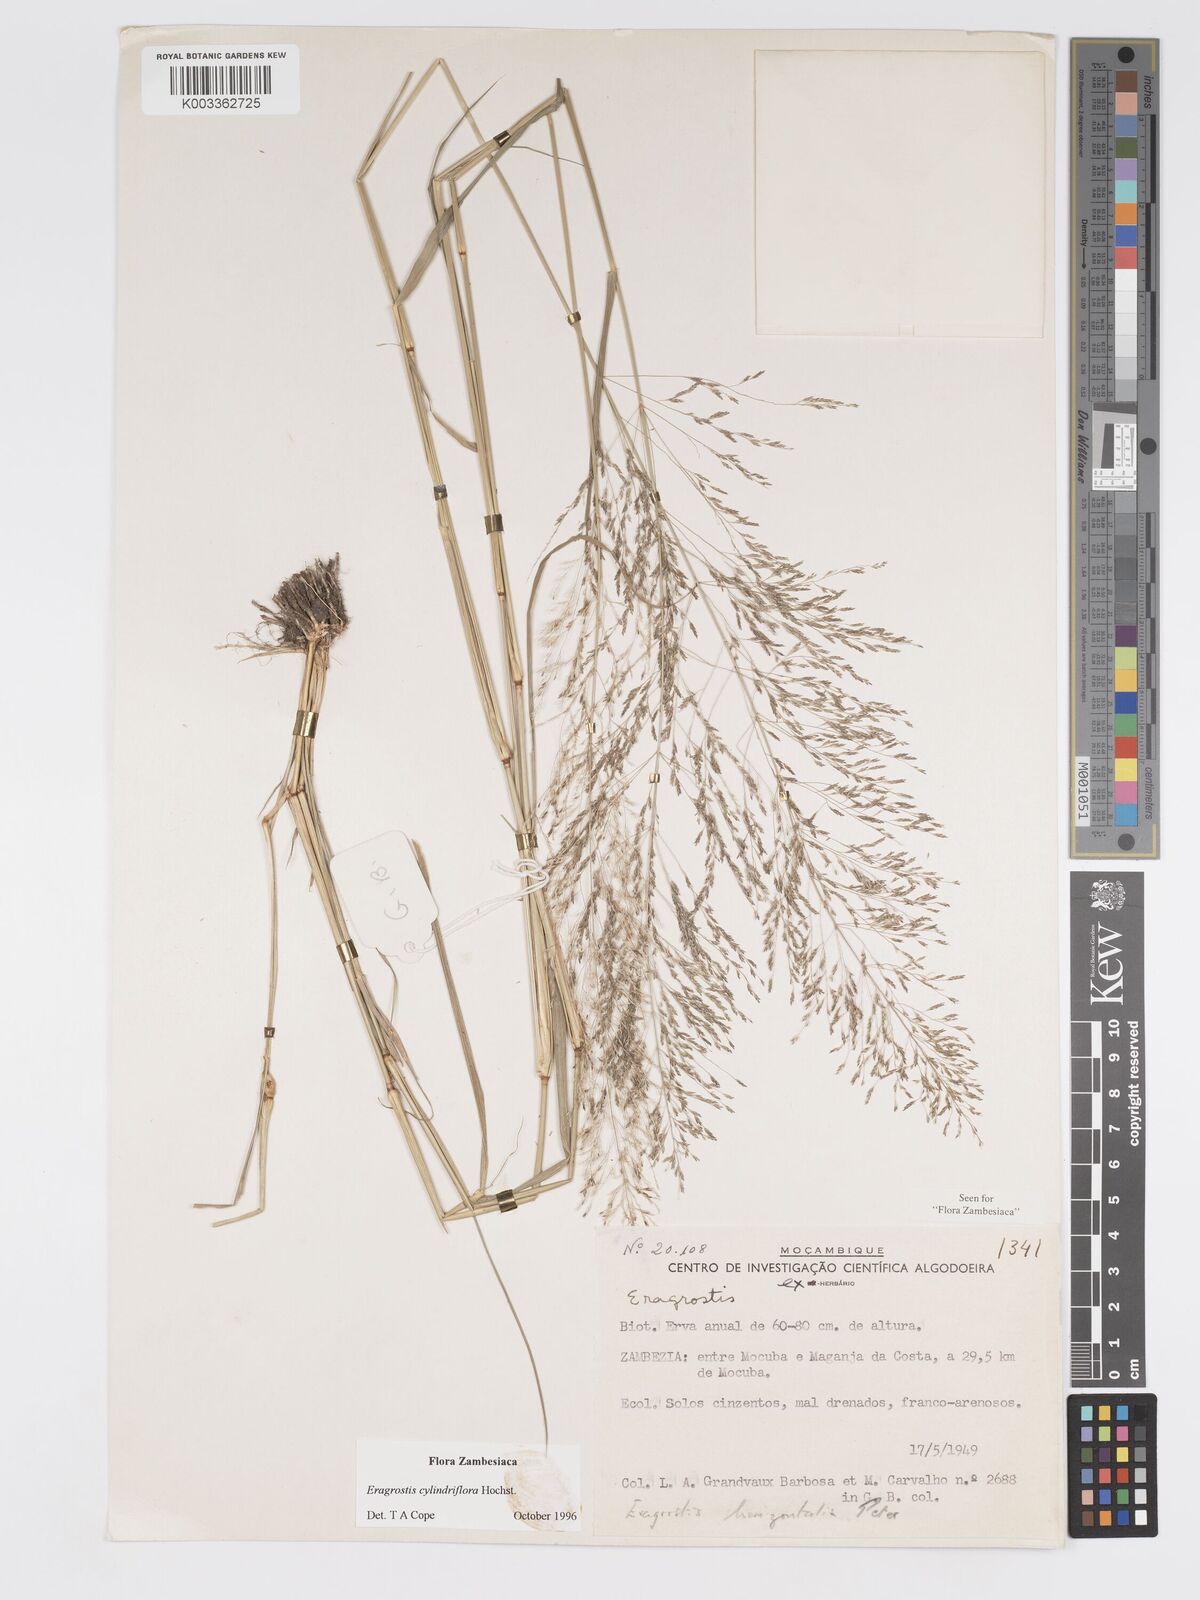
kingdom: Plantae
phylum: Tracheophyta
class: Liliopsida
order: Poales
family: Poaceae
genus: Eragrostis
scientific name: Eragrostis cylindriflora
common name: Cylinderflower lovegrass
